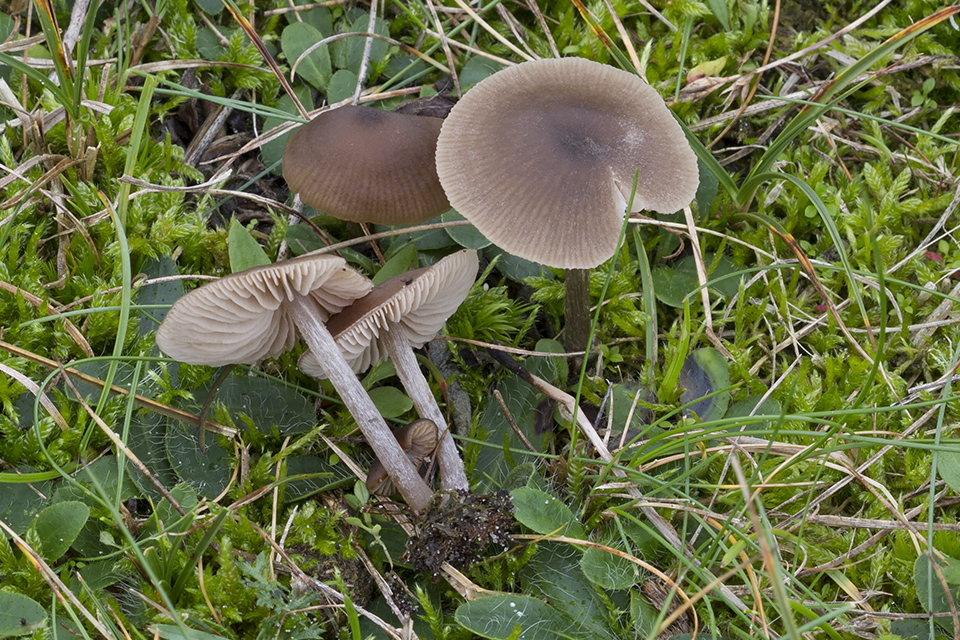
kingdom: Fungi
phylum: Basidiomycota
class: Agaricomycetes
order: Agaricales
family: Entolomataceae
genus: Entoloma
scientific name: Entoloma ortonii
